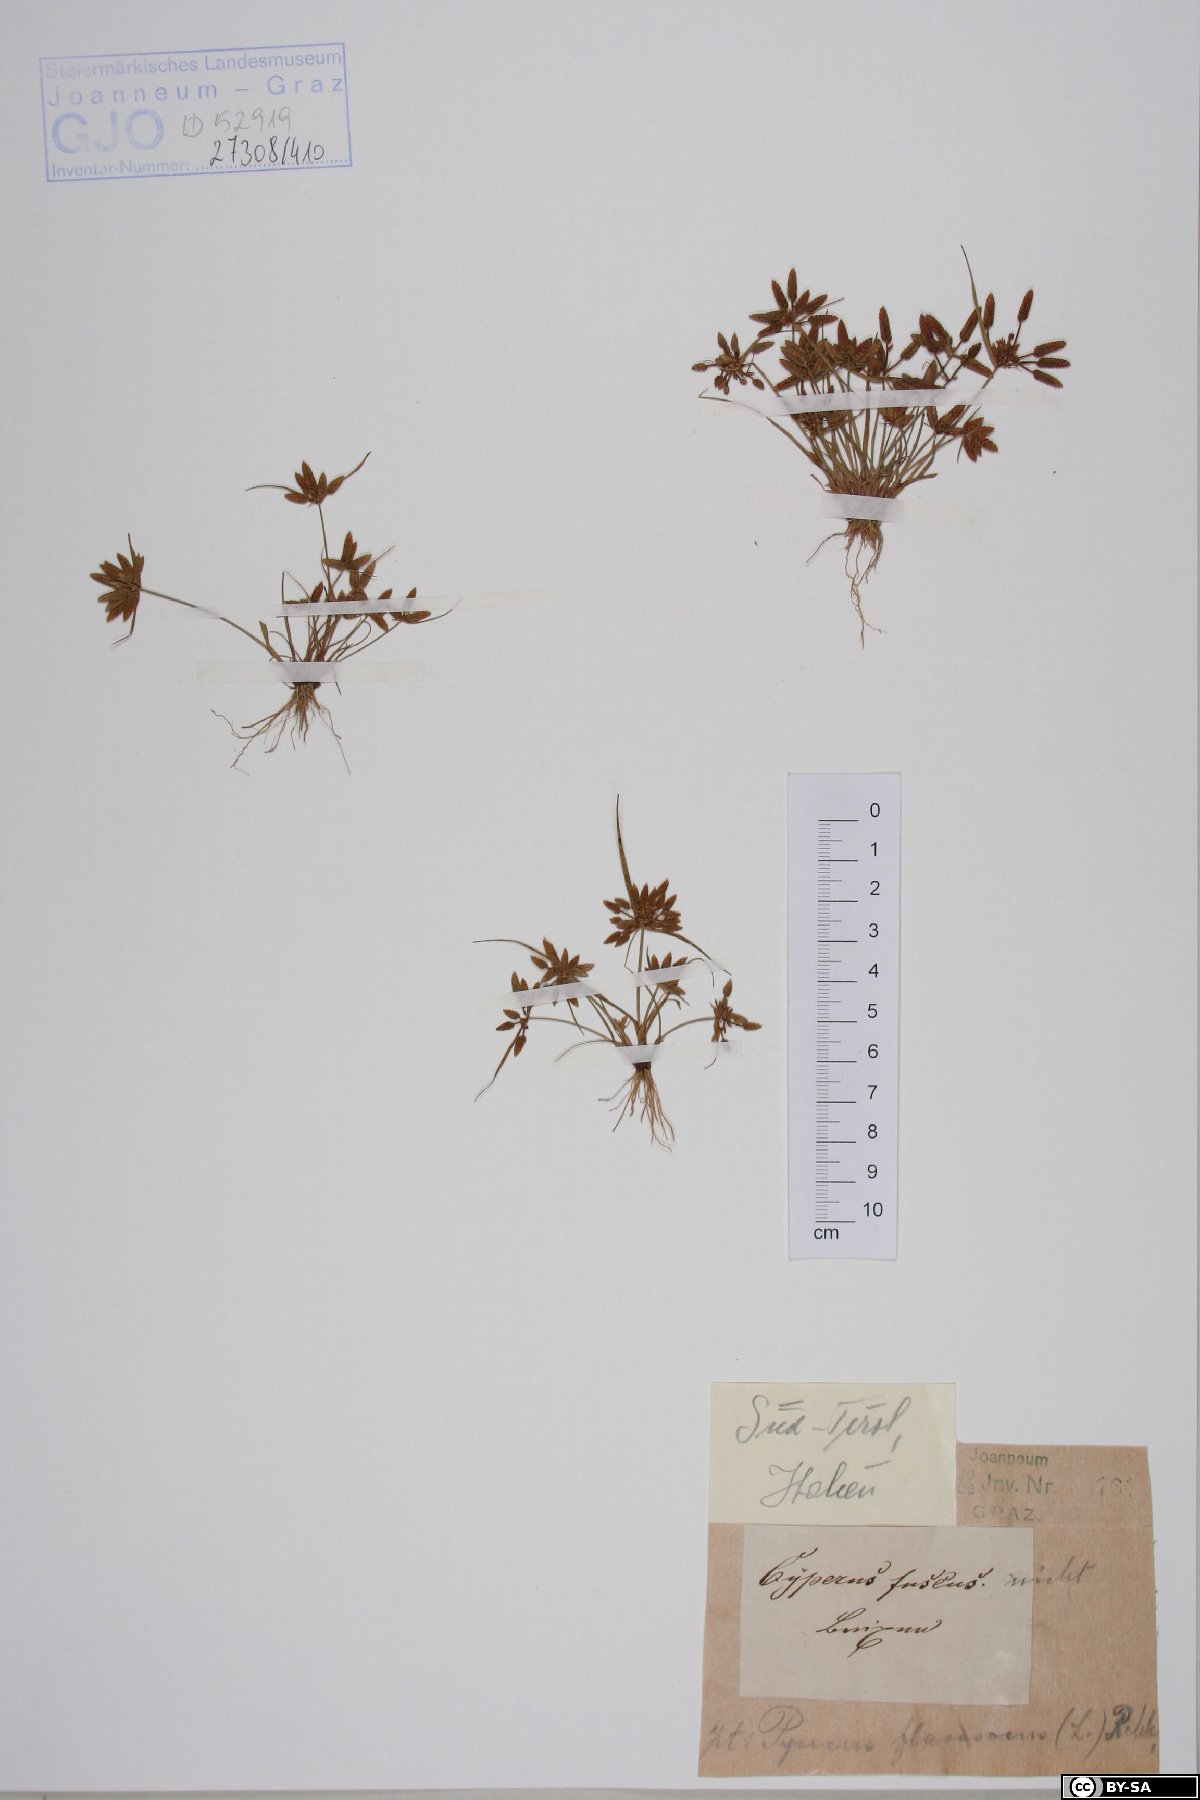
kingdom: Plantae
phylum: Tracheophyta
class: Liliopsida
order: Poales
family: Cyperaceae
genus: Cyperus
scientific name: Cyperus fuscus
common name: Brown galingale
